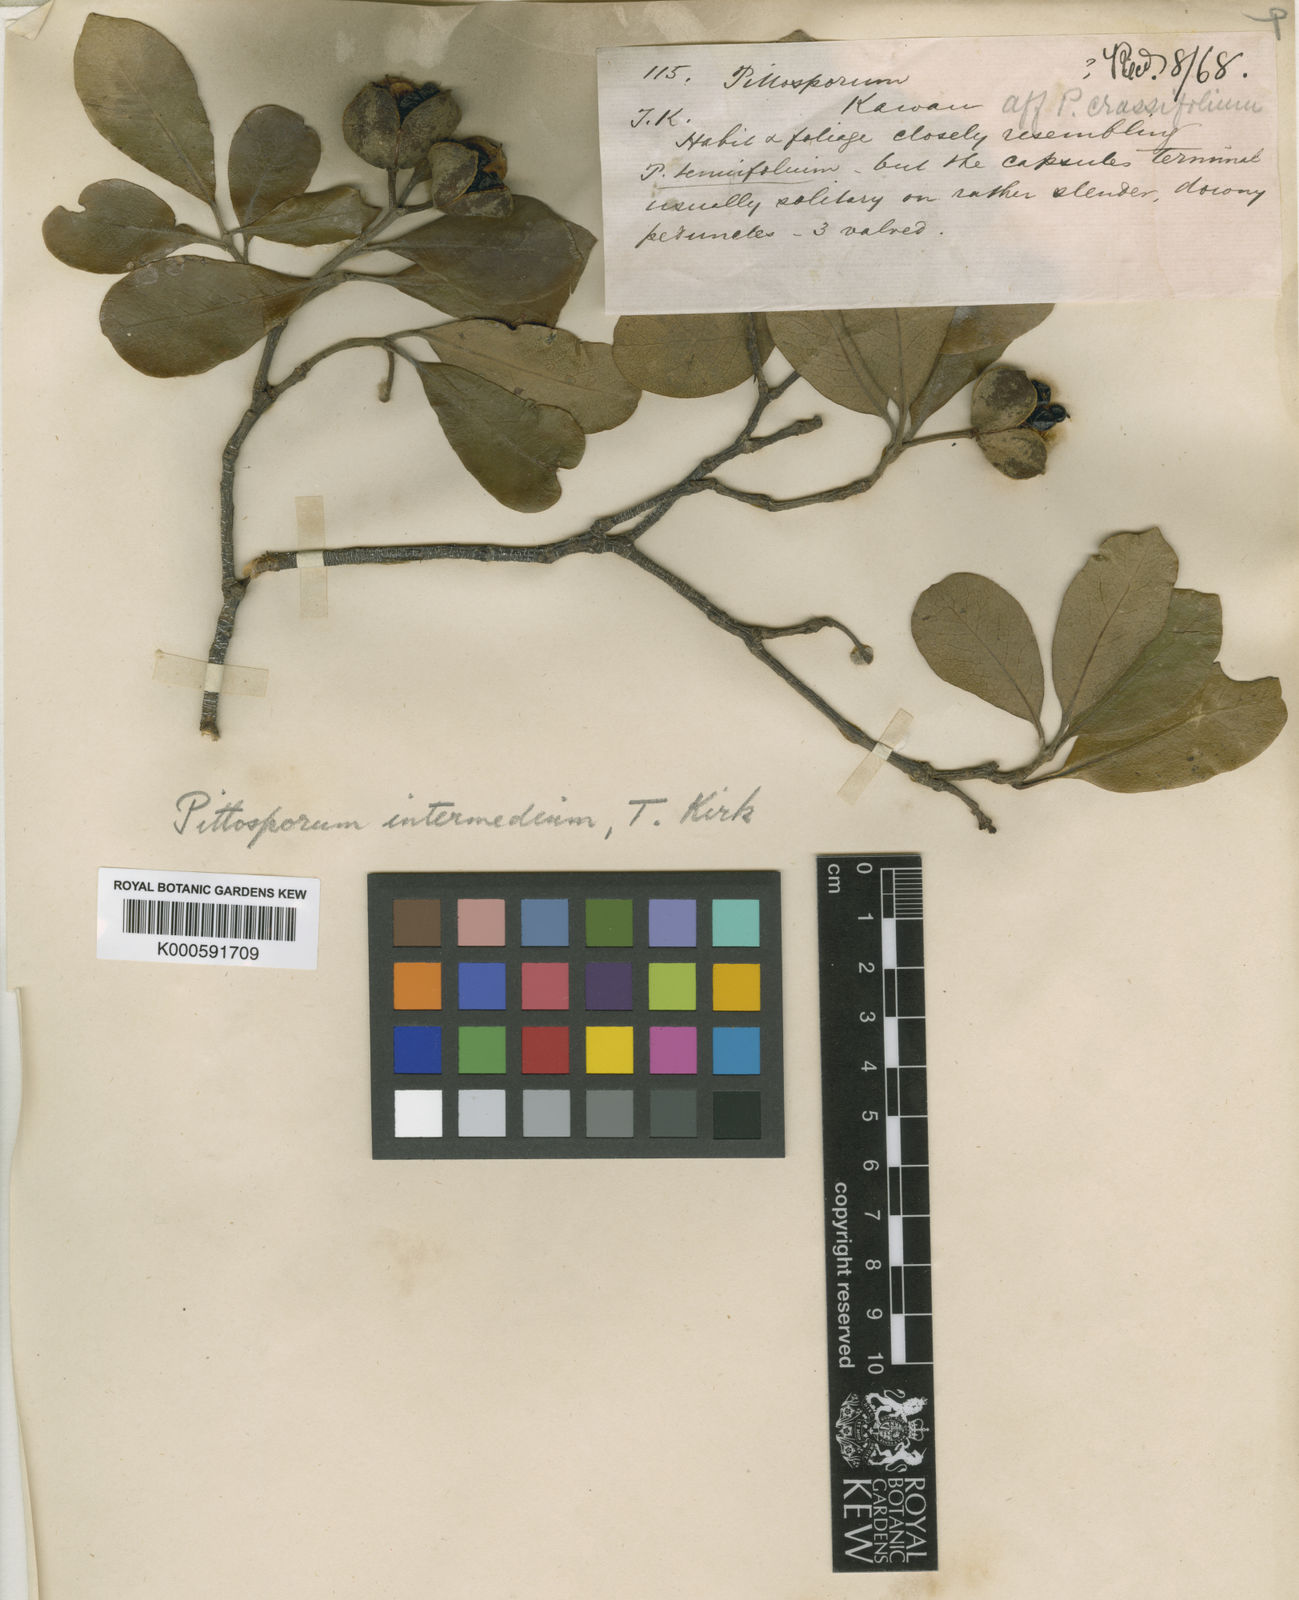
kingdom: Plantae
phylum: Tracheophyta
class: Magnoliopsida
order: Apiales
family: Pittosporaceae
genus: Pittosporum
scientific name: Pittosporum
